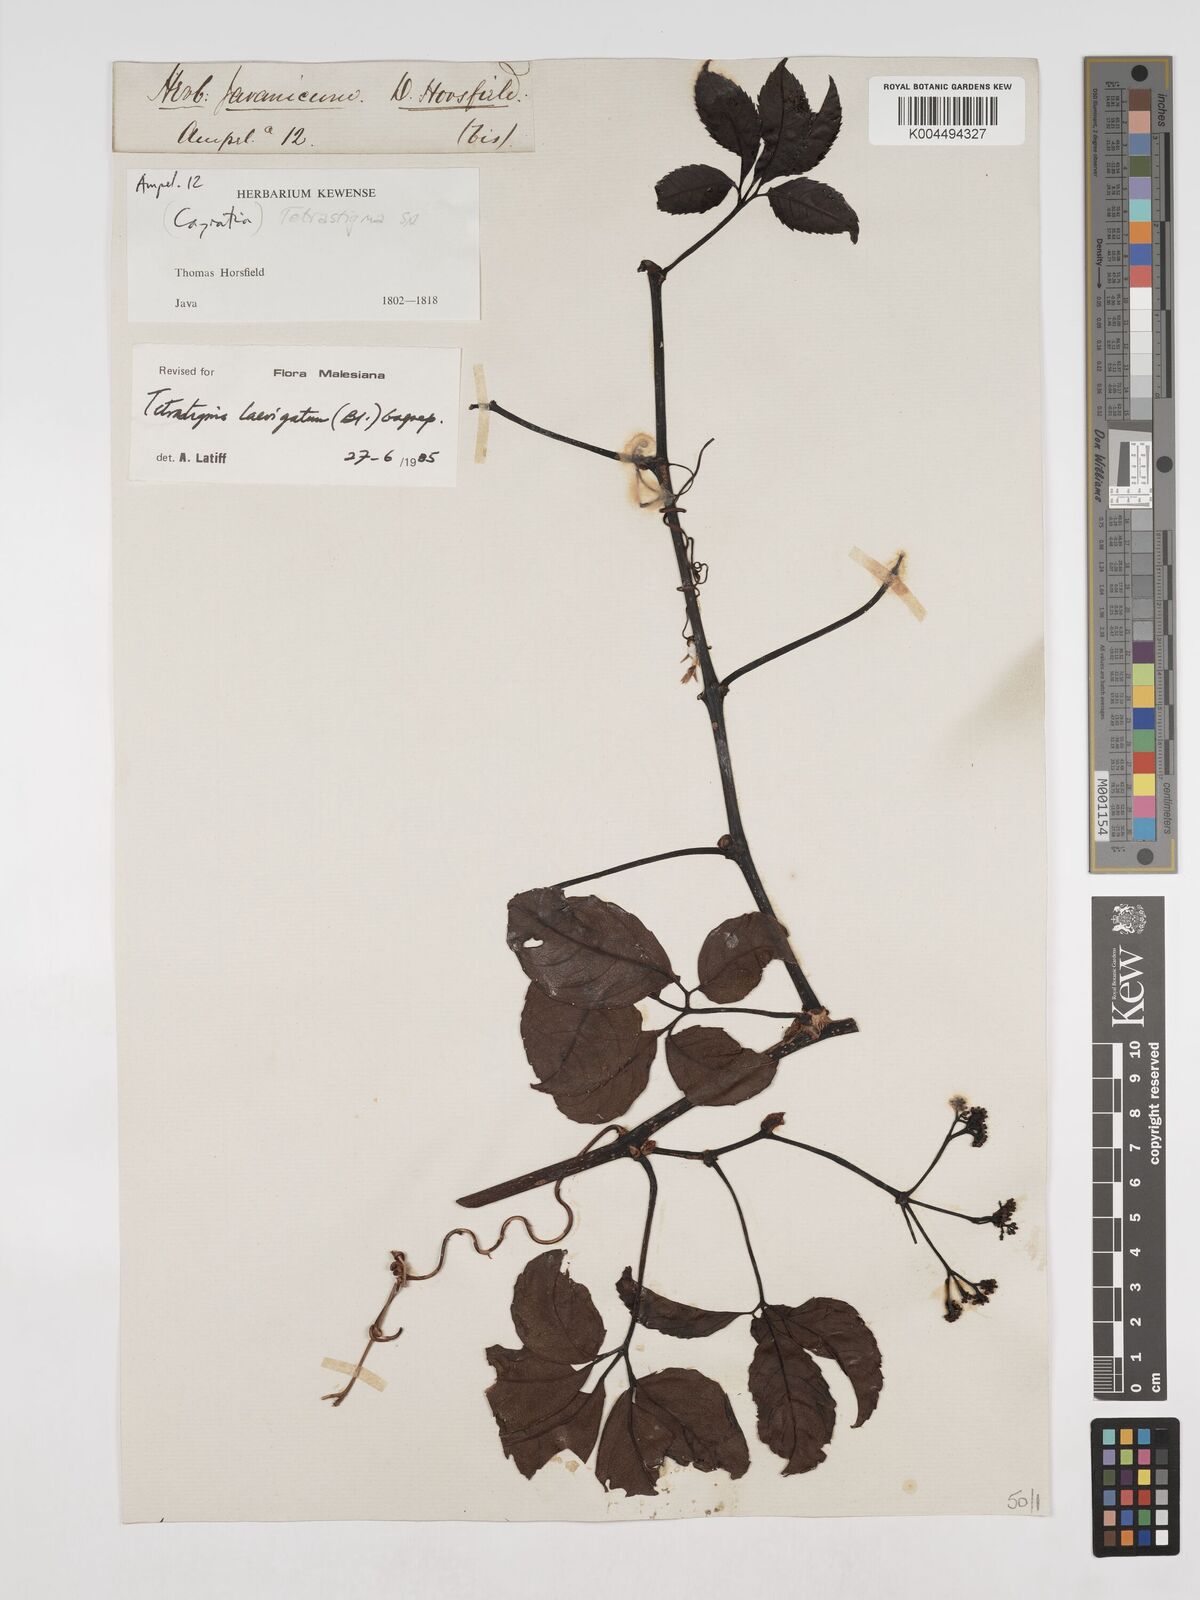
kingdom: Plantae
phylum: Tracheophyta
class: Magnoliopsida
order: Vitales
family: Vitaceae
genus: Tetrastigma
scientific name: Tetrastigma laevigatum
